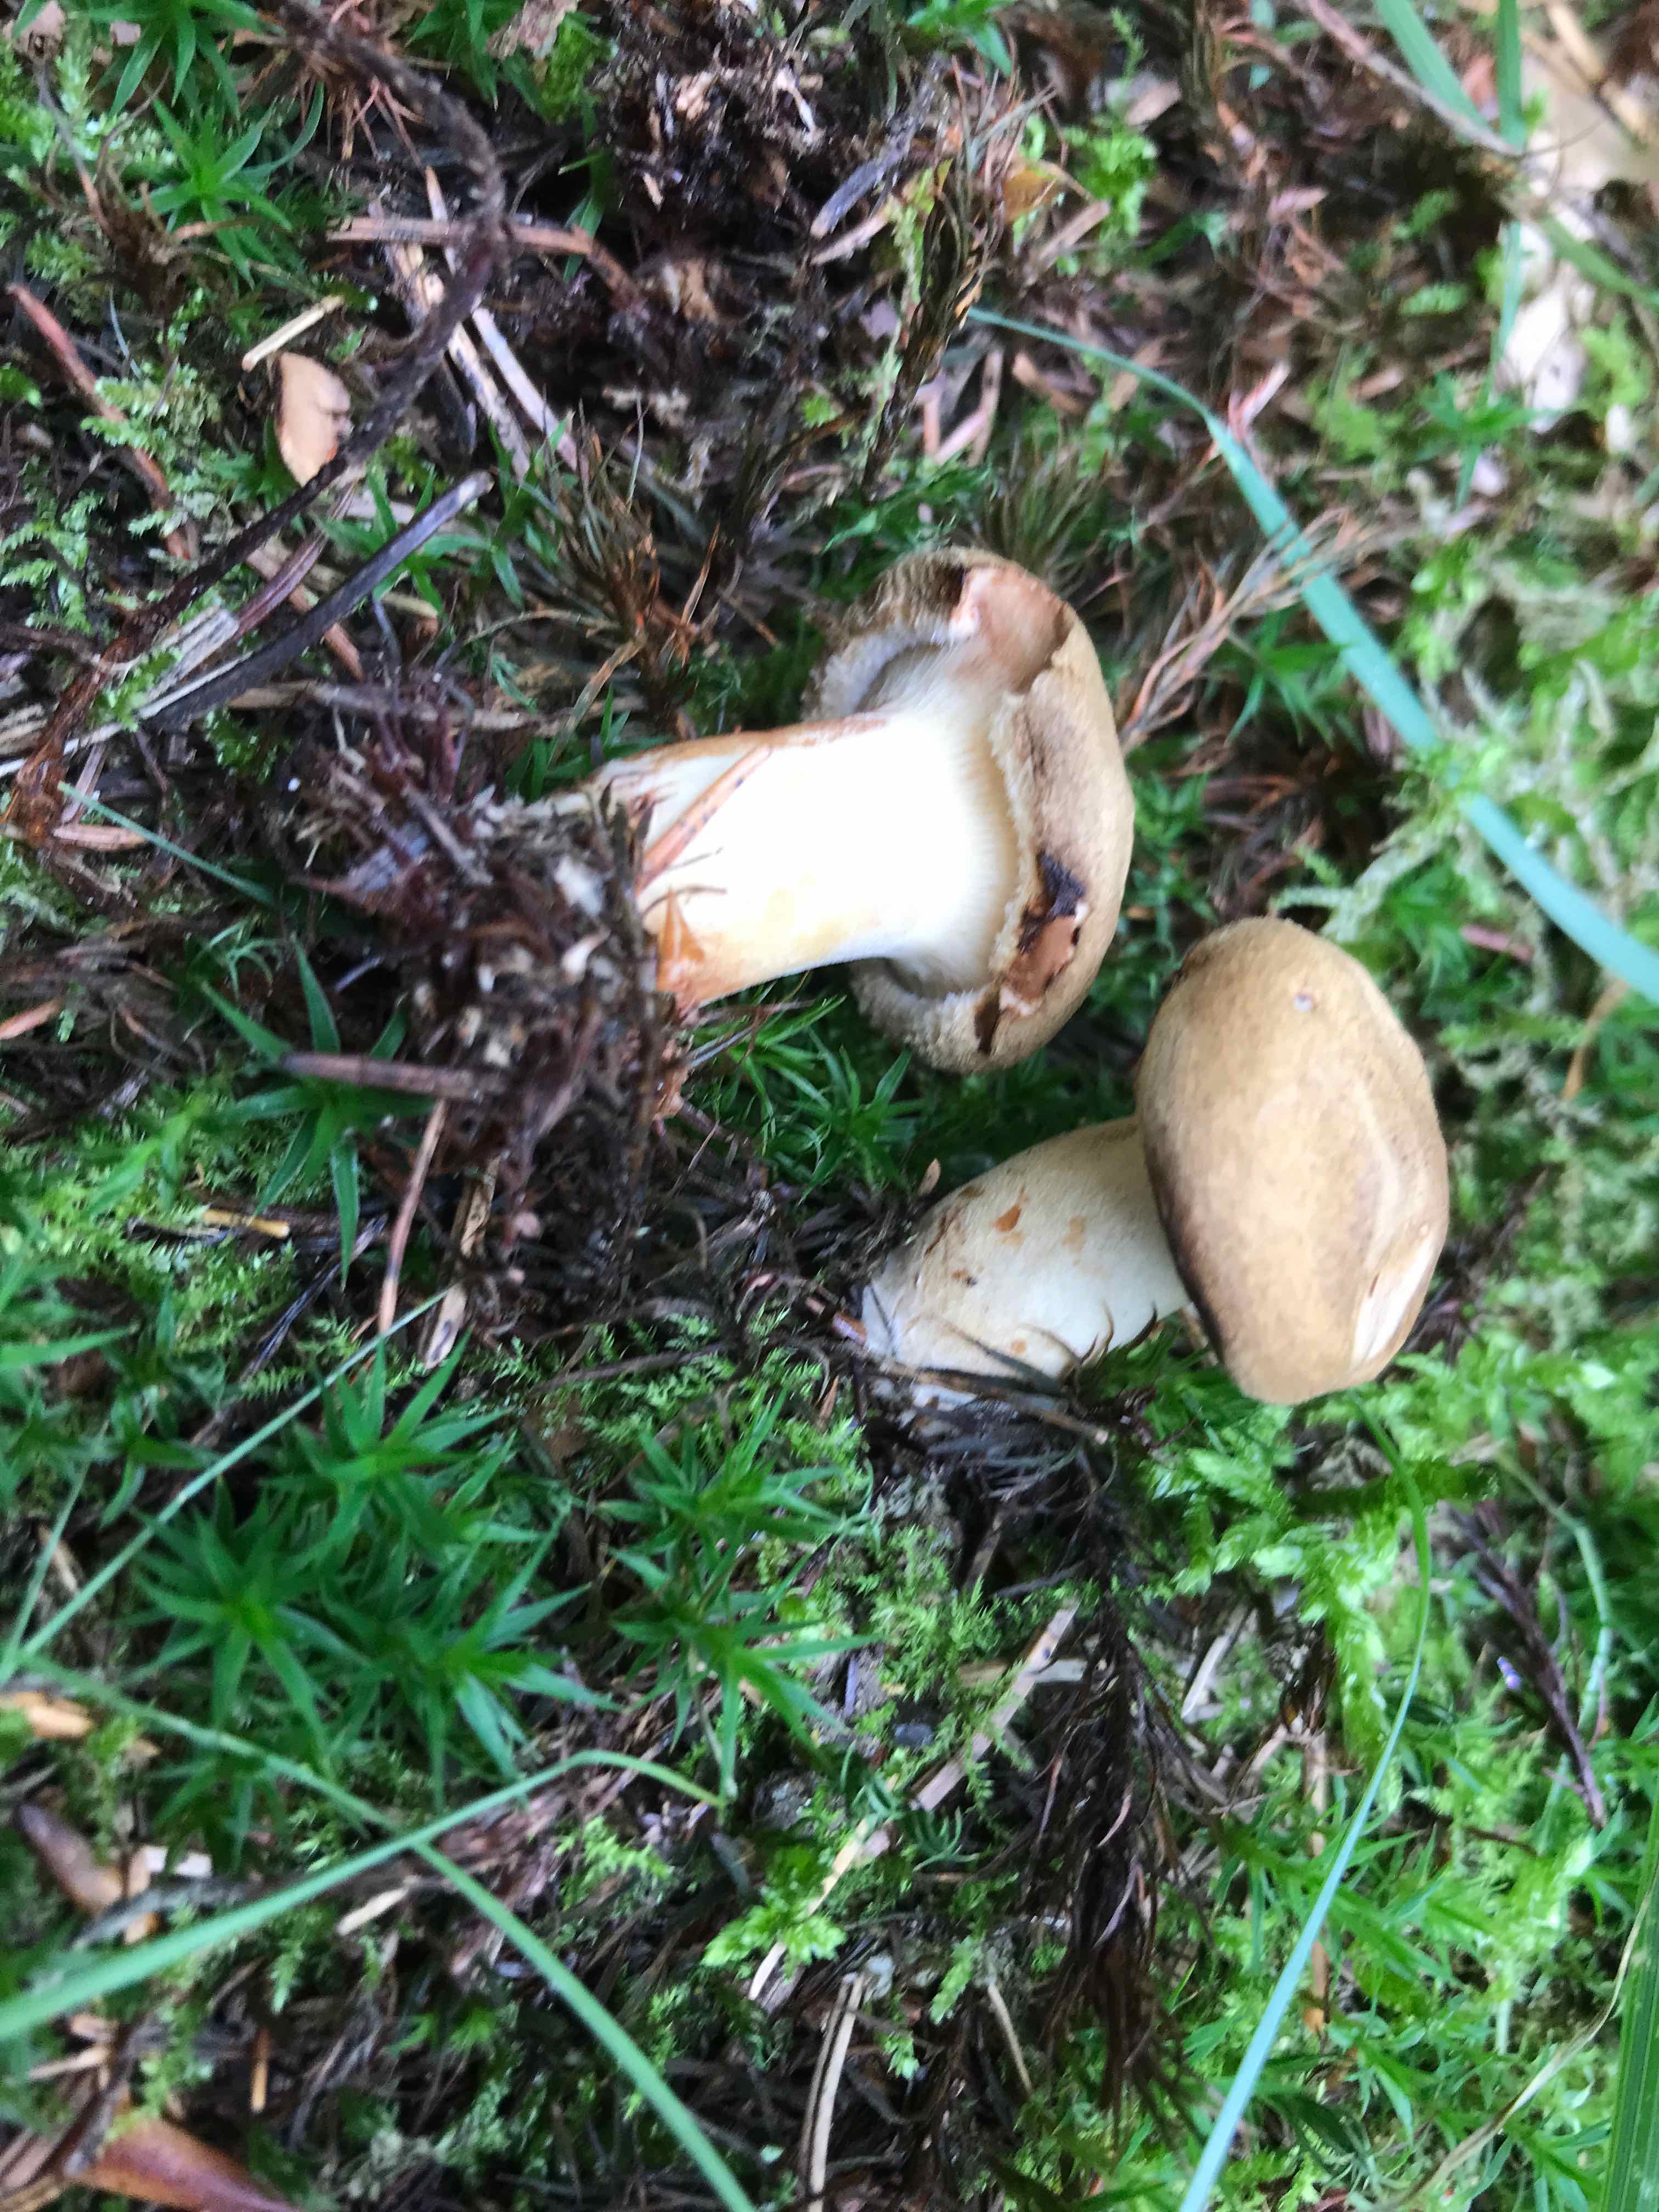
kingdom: Fungi
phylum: Basidiomycota
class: Agaricomycetes
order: Boletales
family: Paxillaceae
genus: Paxillus
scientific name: Paxillus involutus
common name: almindelig netbladhat
